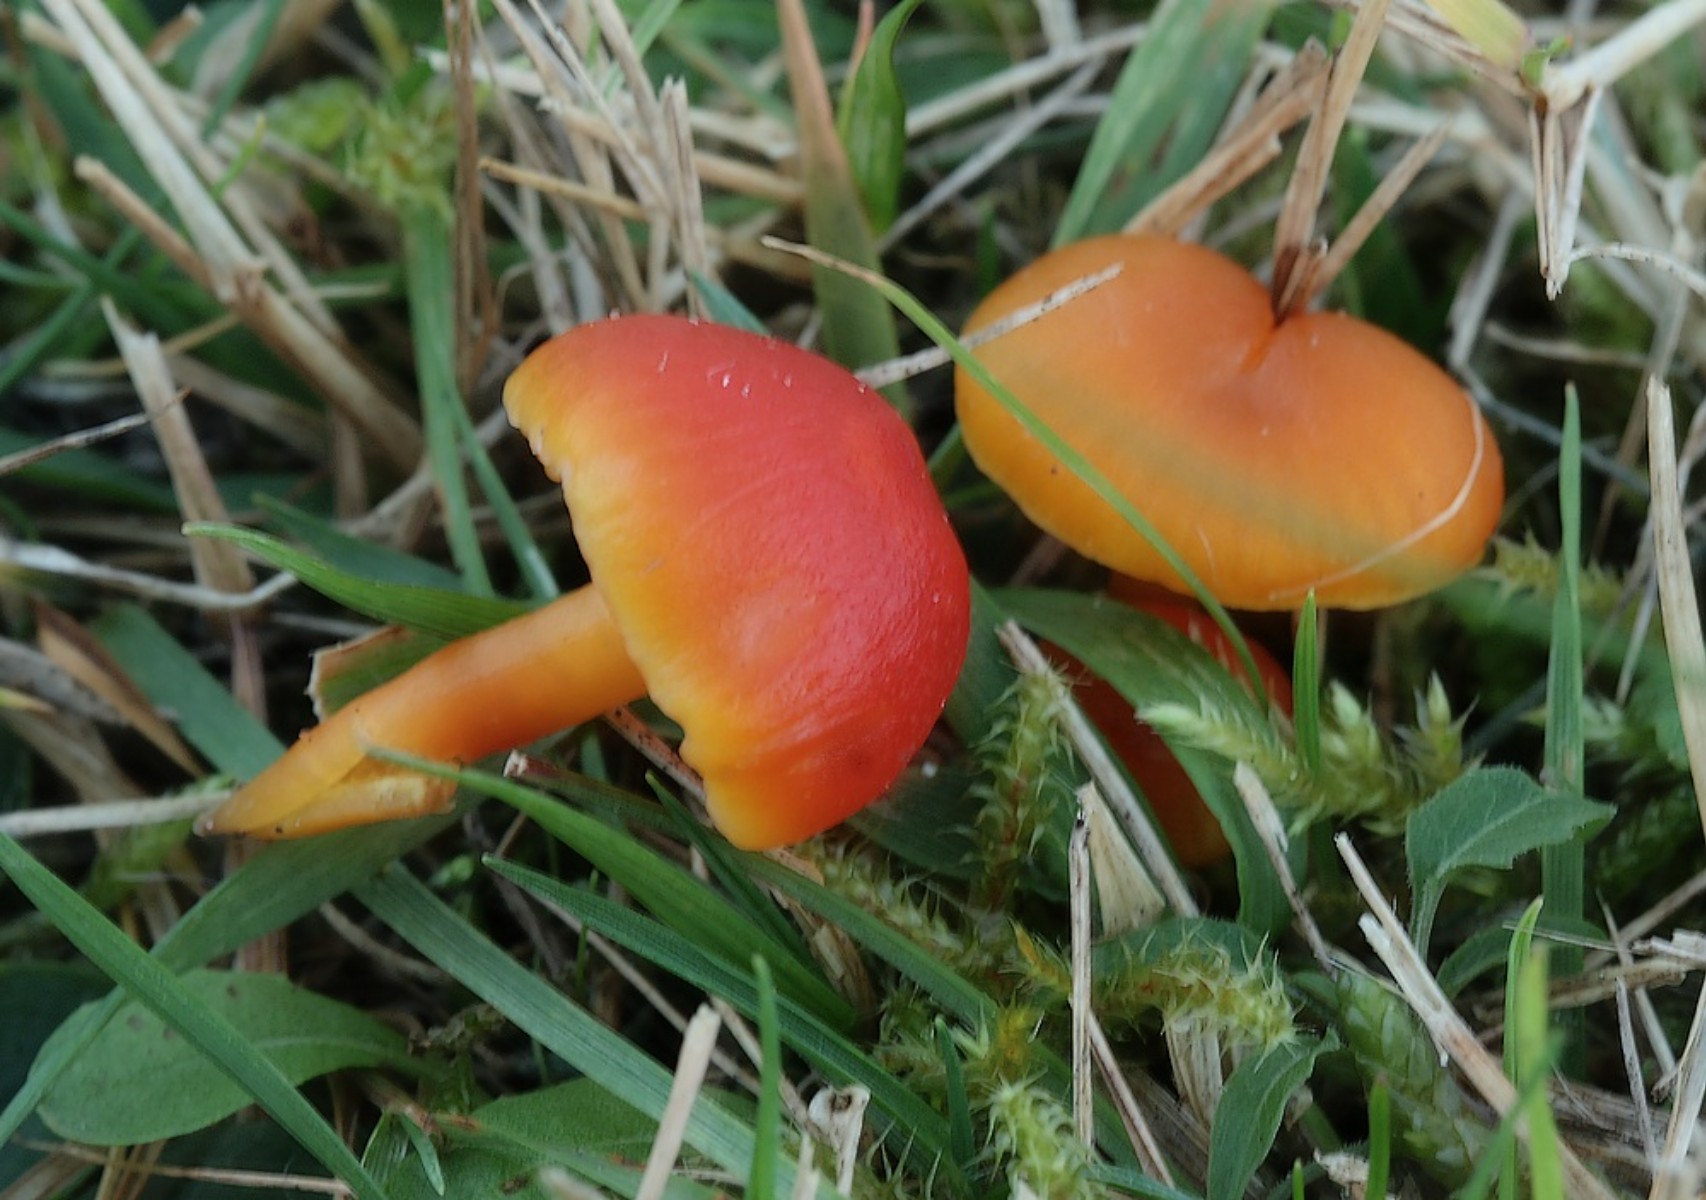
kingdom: Fungi
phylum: Basidiomycota
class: Agaricomycetes
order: Agaricales
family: Hygrophoraceae
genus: Hygrocybe
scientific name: Hygrocybe coccinea
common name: cinnober-vokshat
